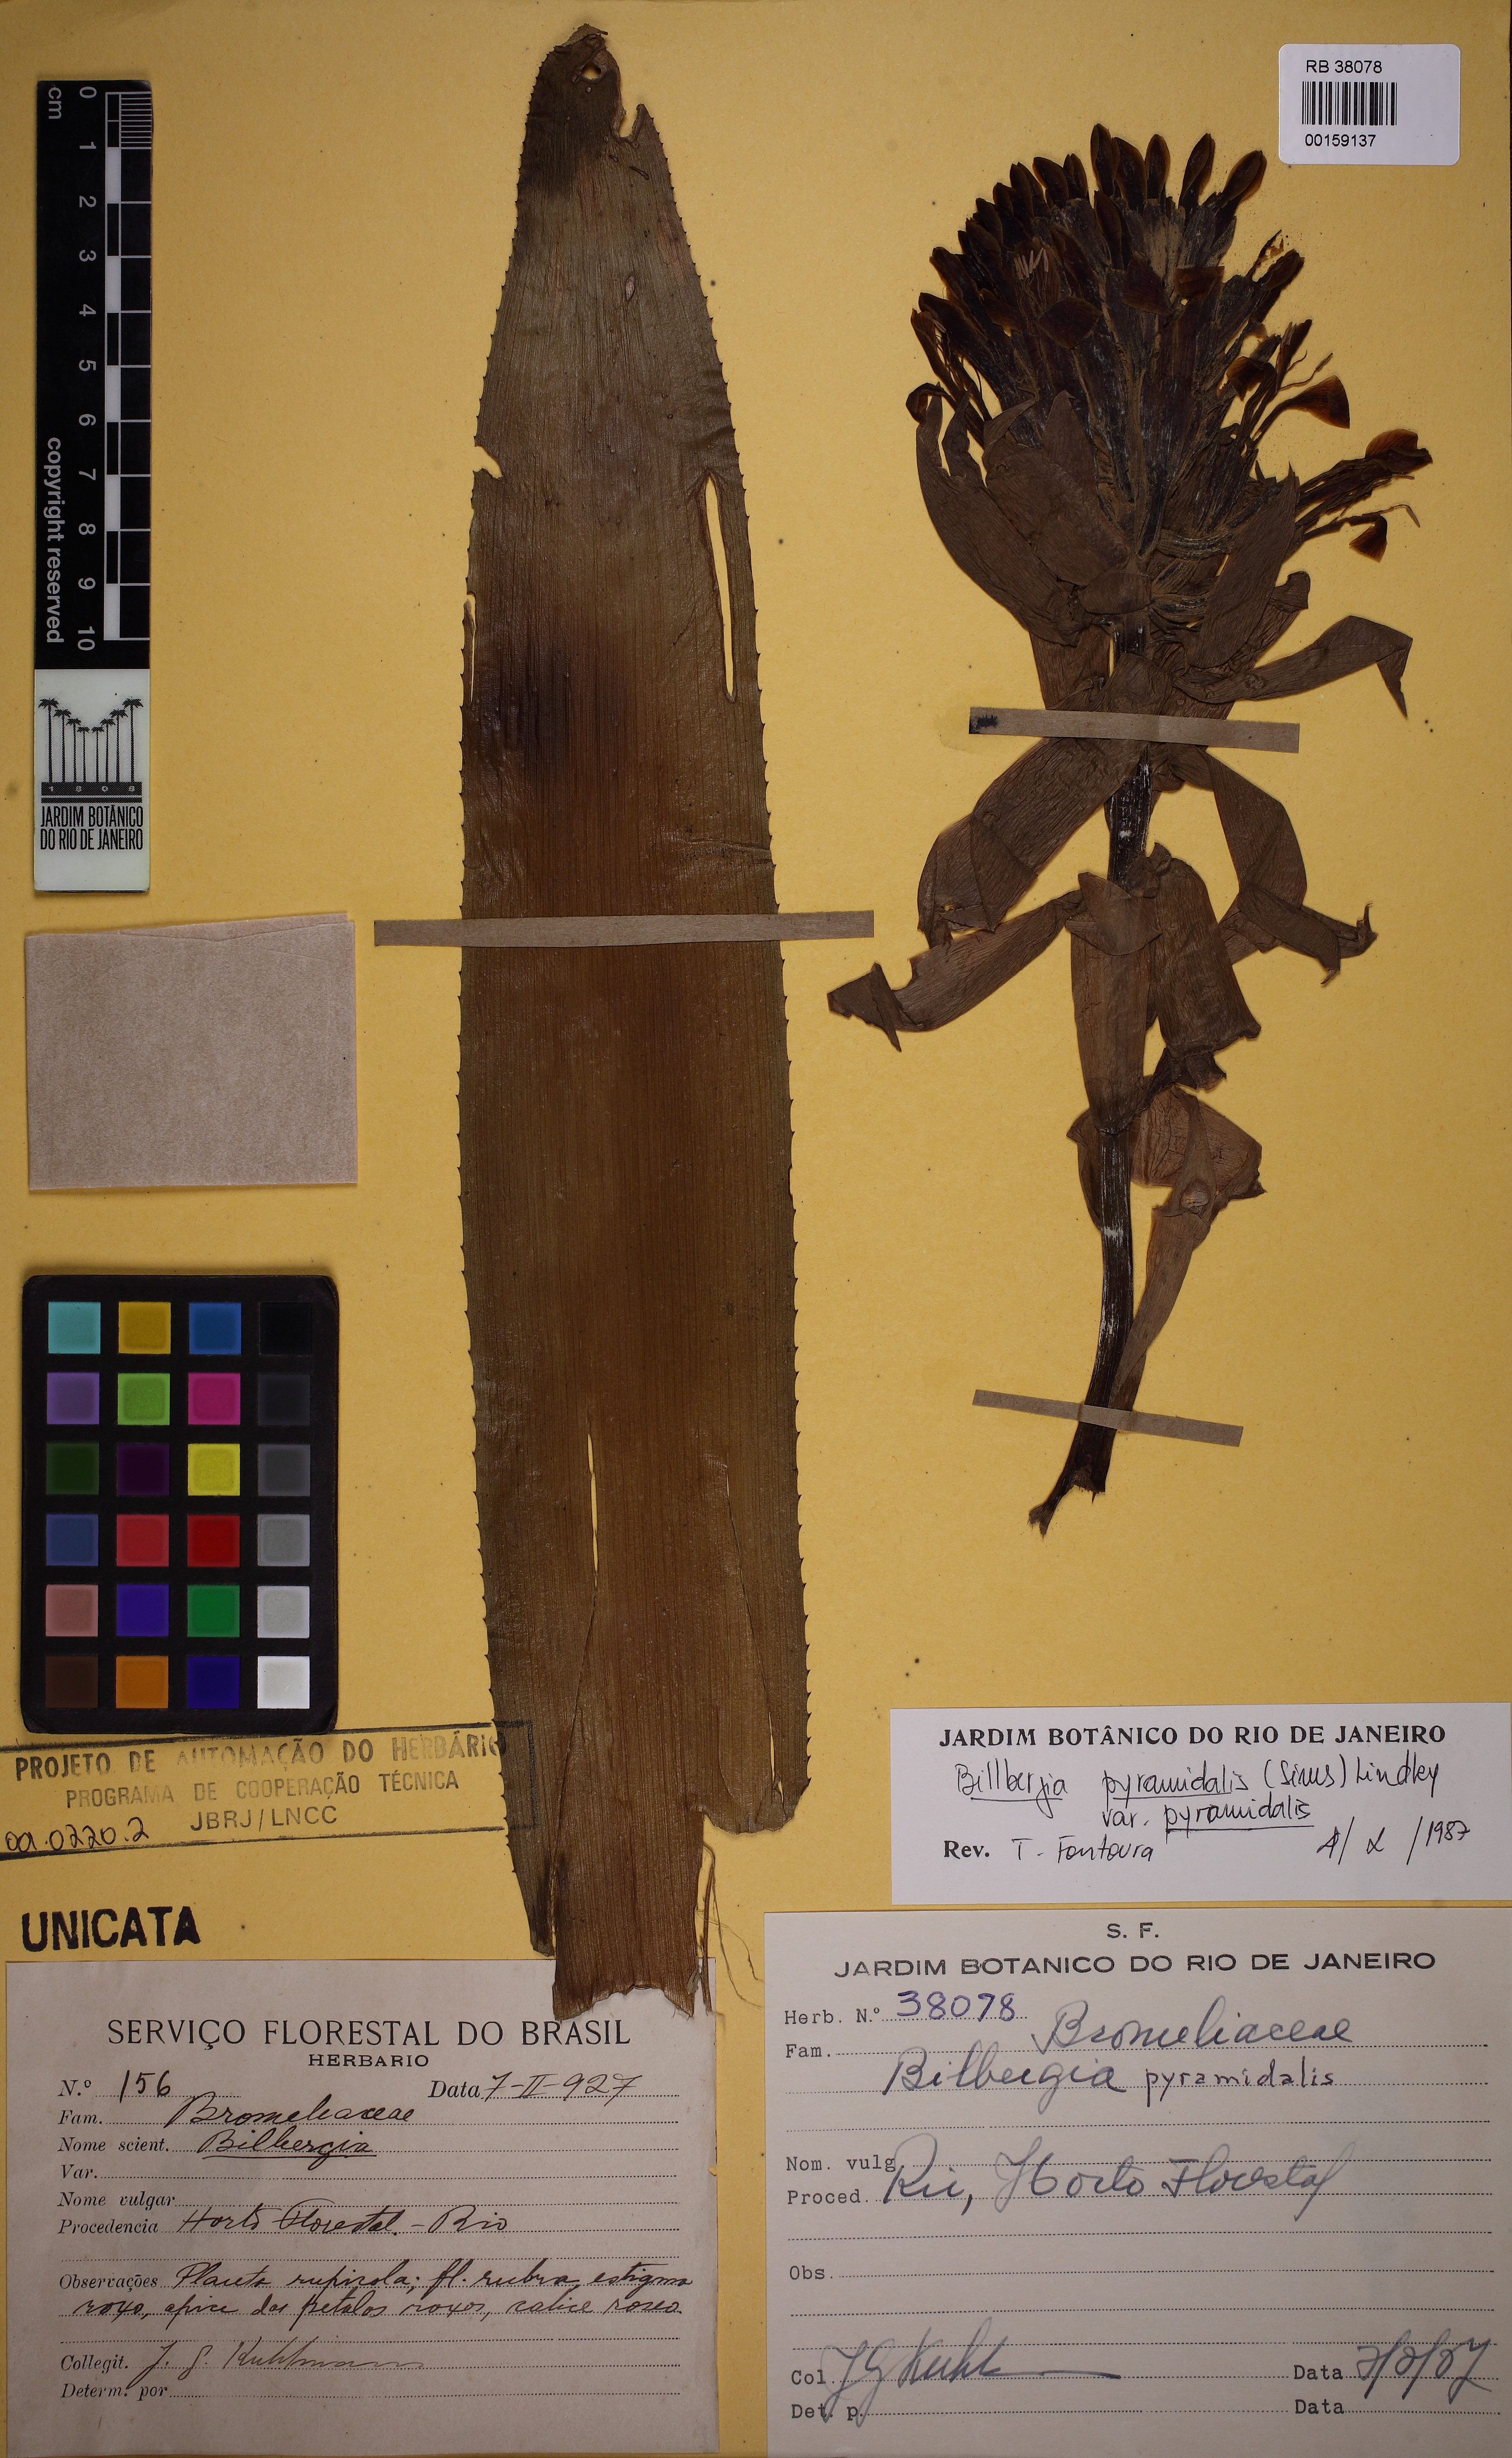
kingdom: Plantae
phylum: Tracheophyta
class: Liliopsida
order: Poales
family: Bromeliaceae
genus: Billbergia
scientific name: Billbergia pyramidalis
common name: Foolproofplant
